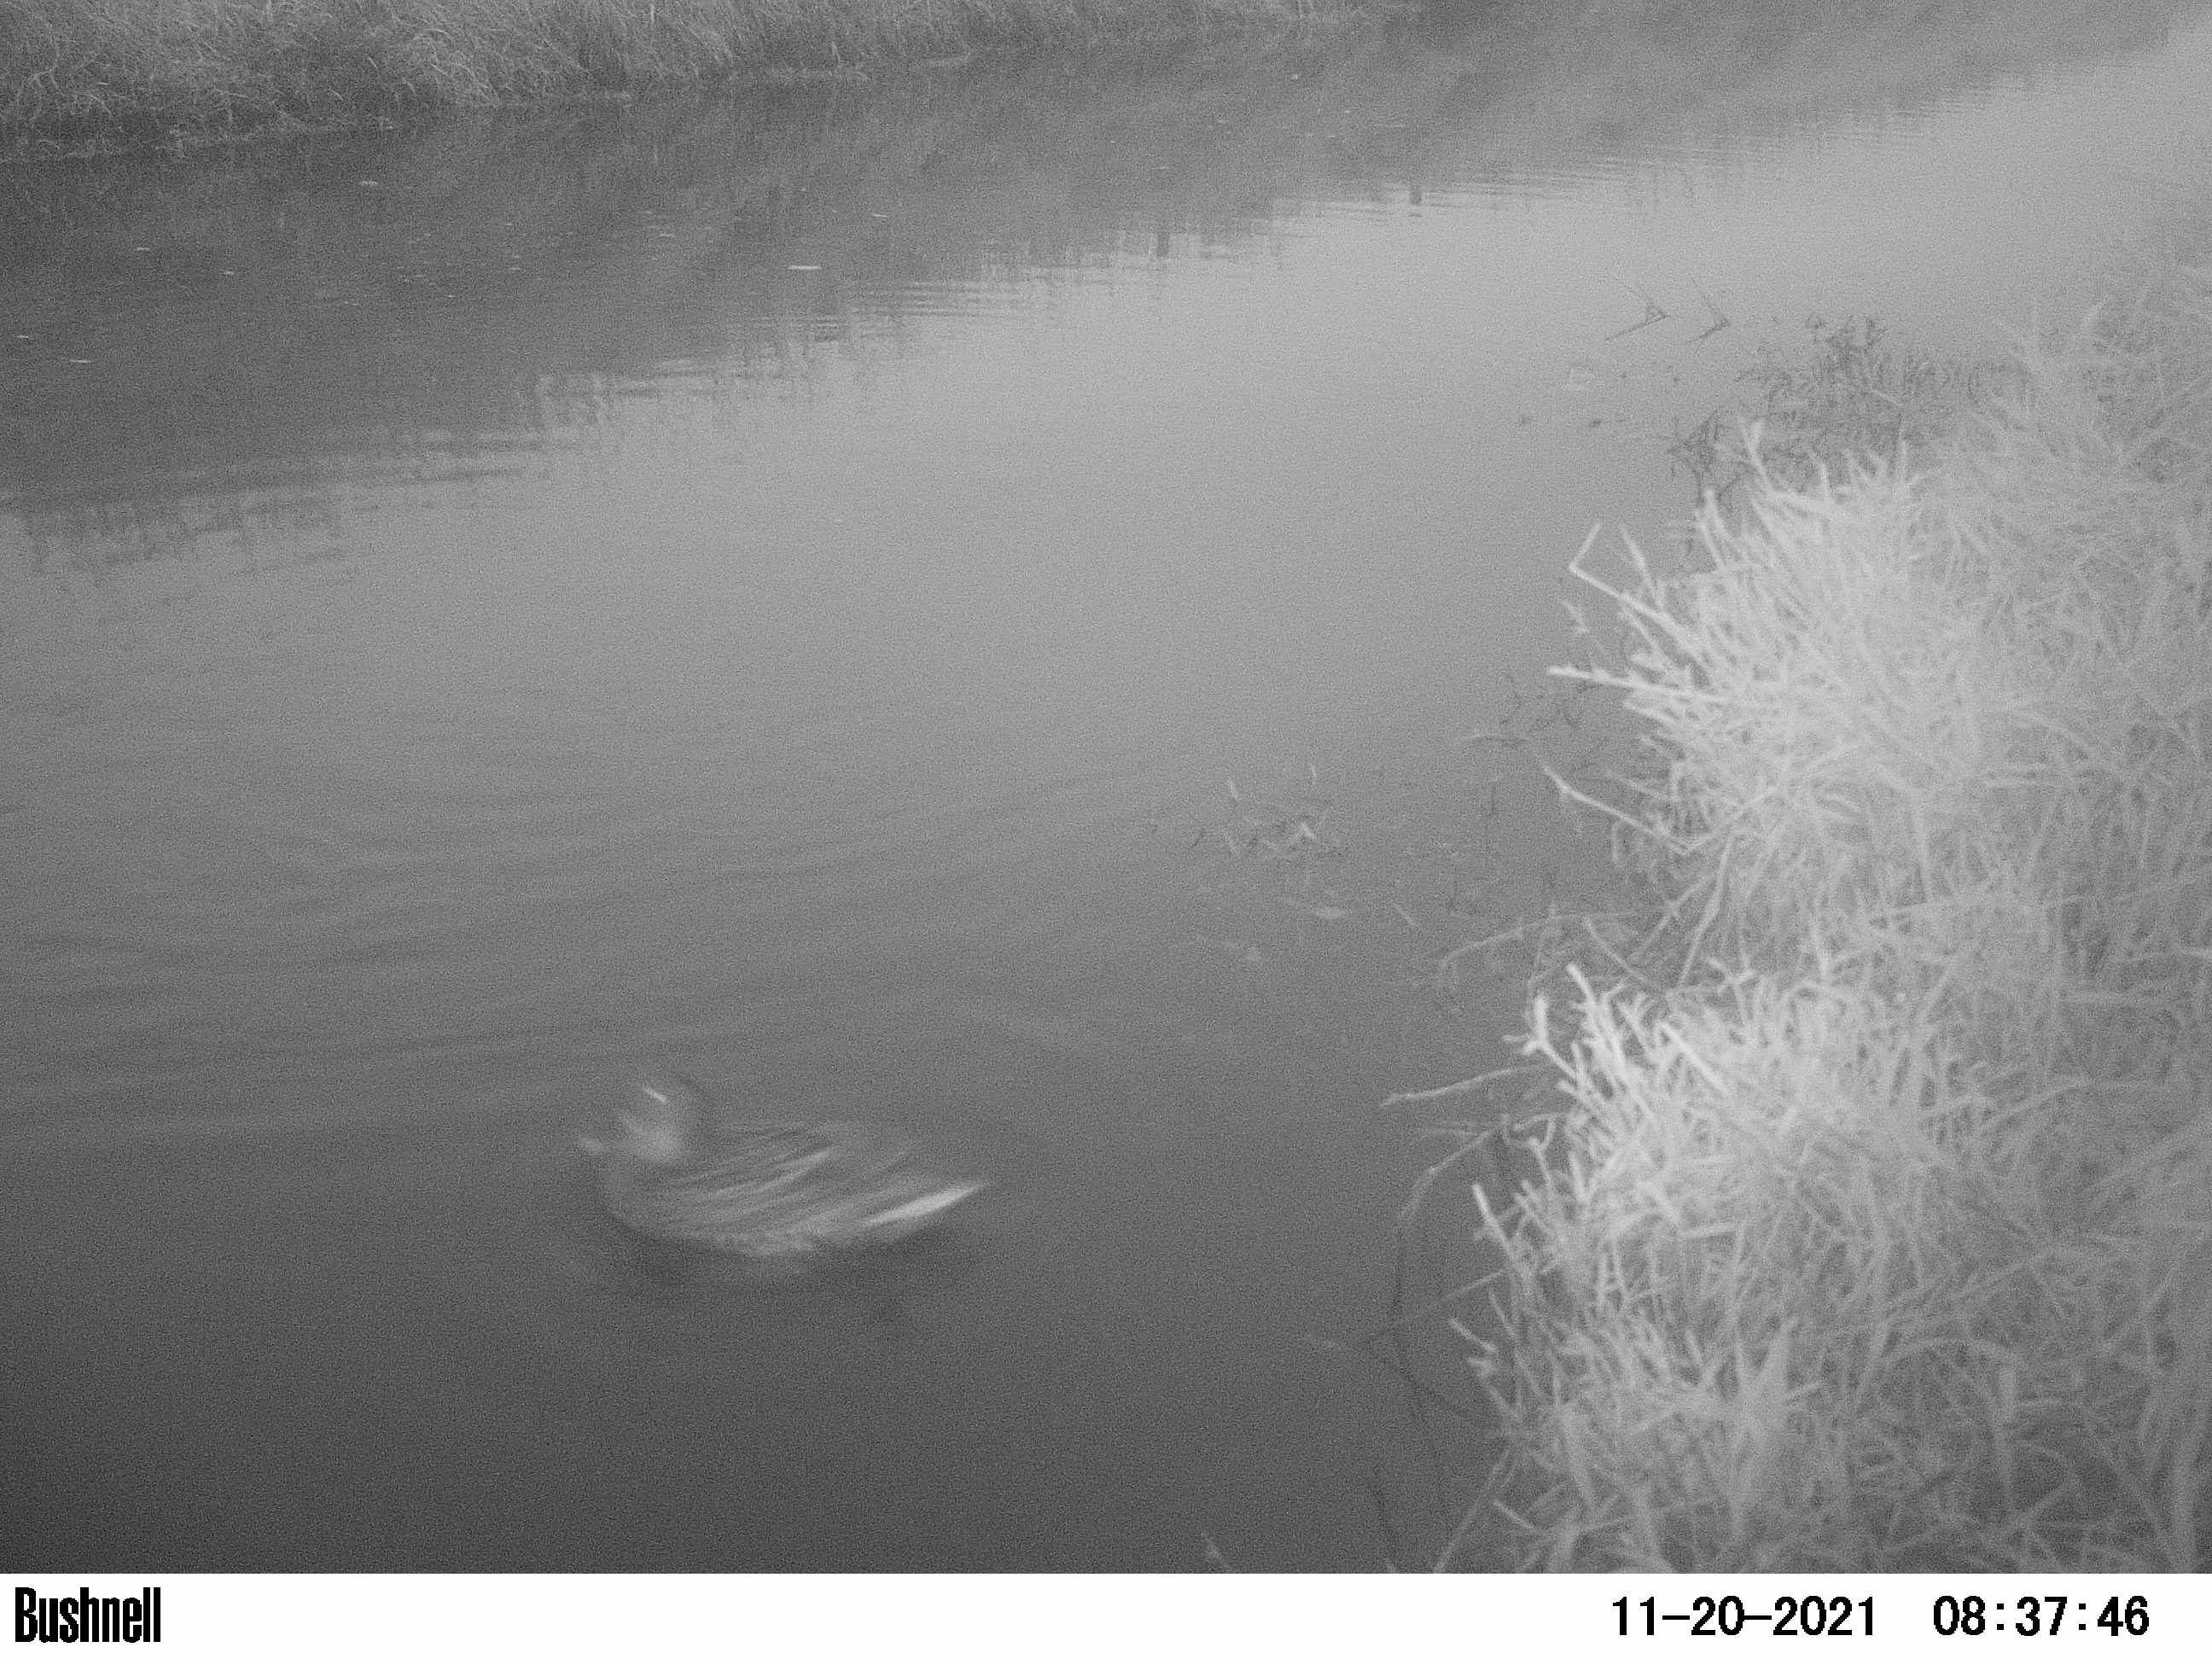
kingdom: Animalia
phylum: Chordata
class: Aves
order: Anseriformes
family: Anatidae
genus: Anas
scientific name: Anas
